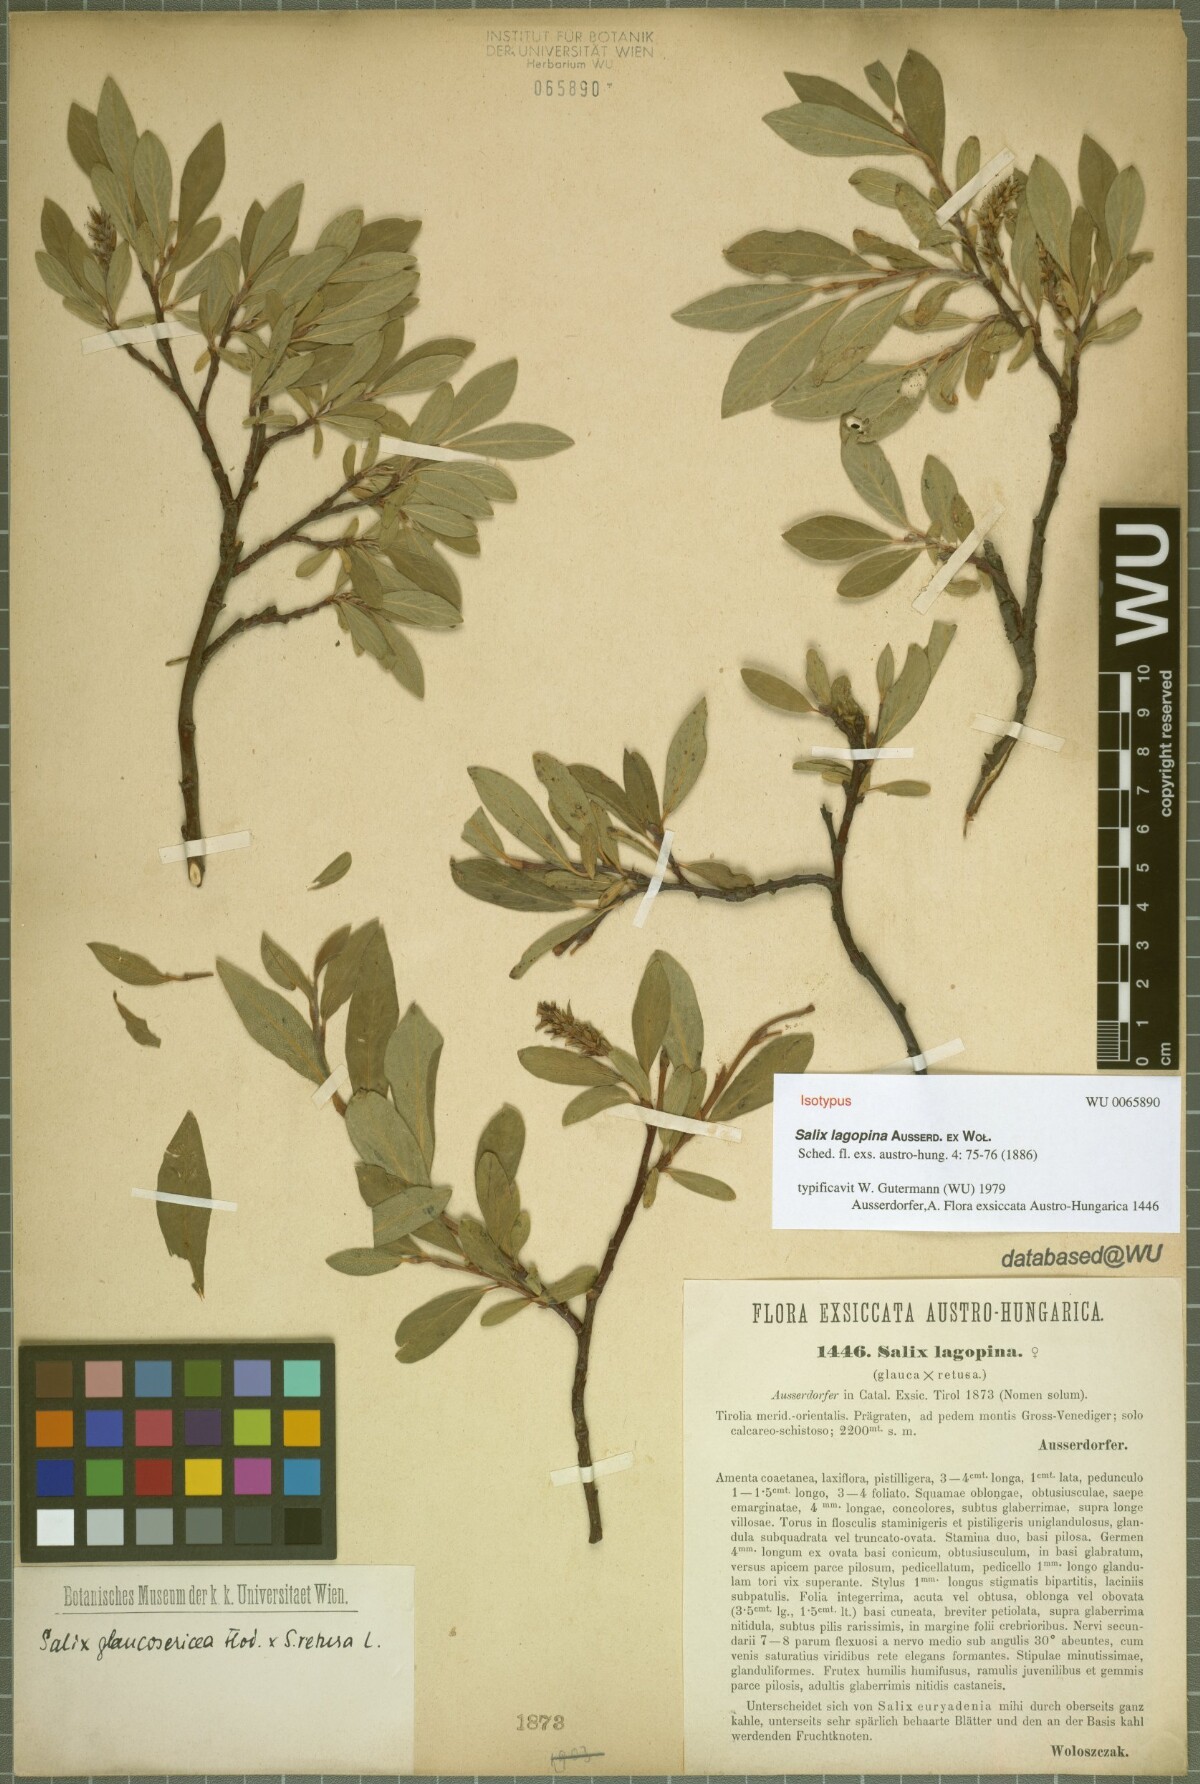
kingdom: Plantae
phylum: Tracheophyta
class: Magnoliopsida
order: Malpighiales
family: Salicaceae
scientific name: Salicaceae
